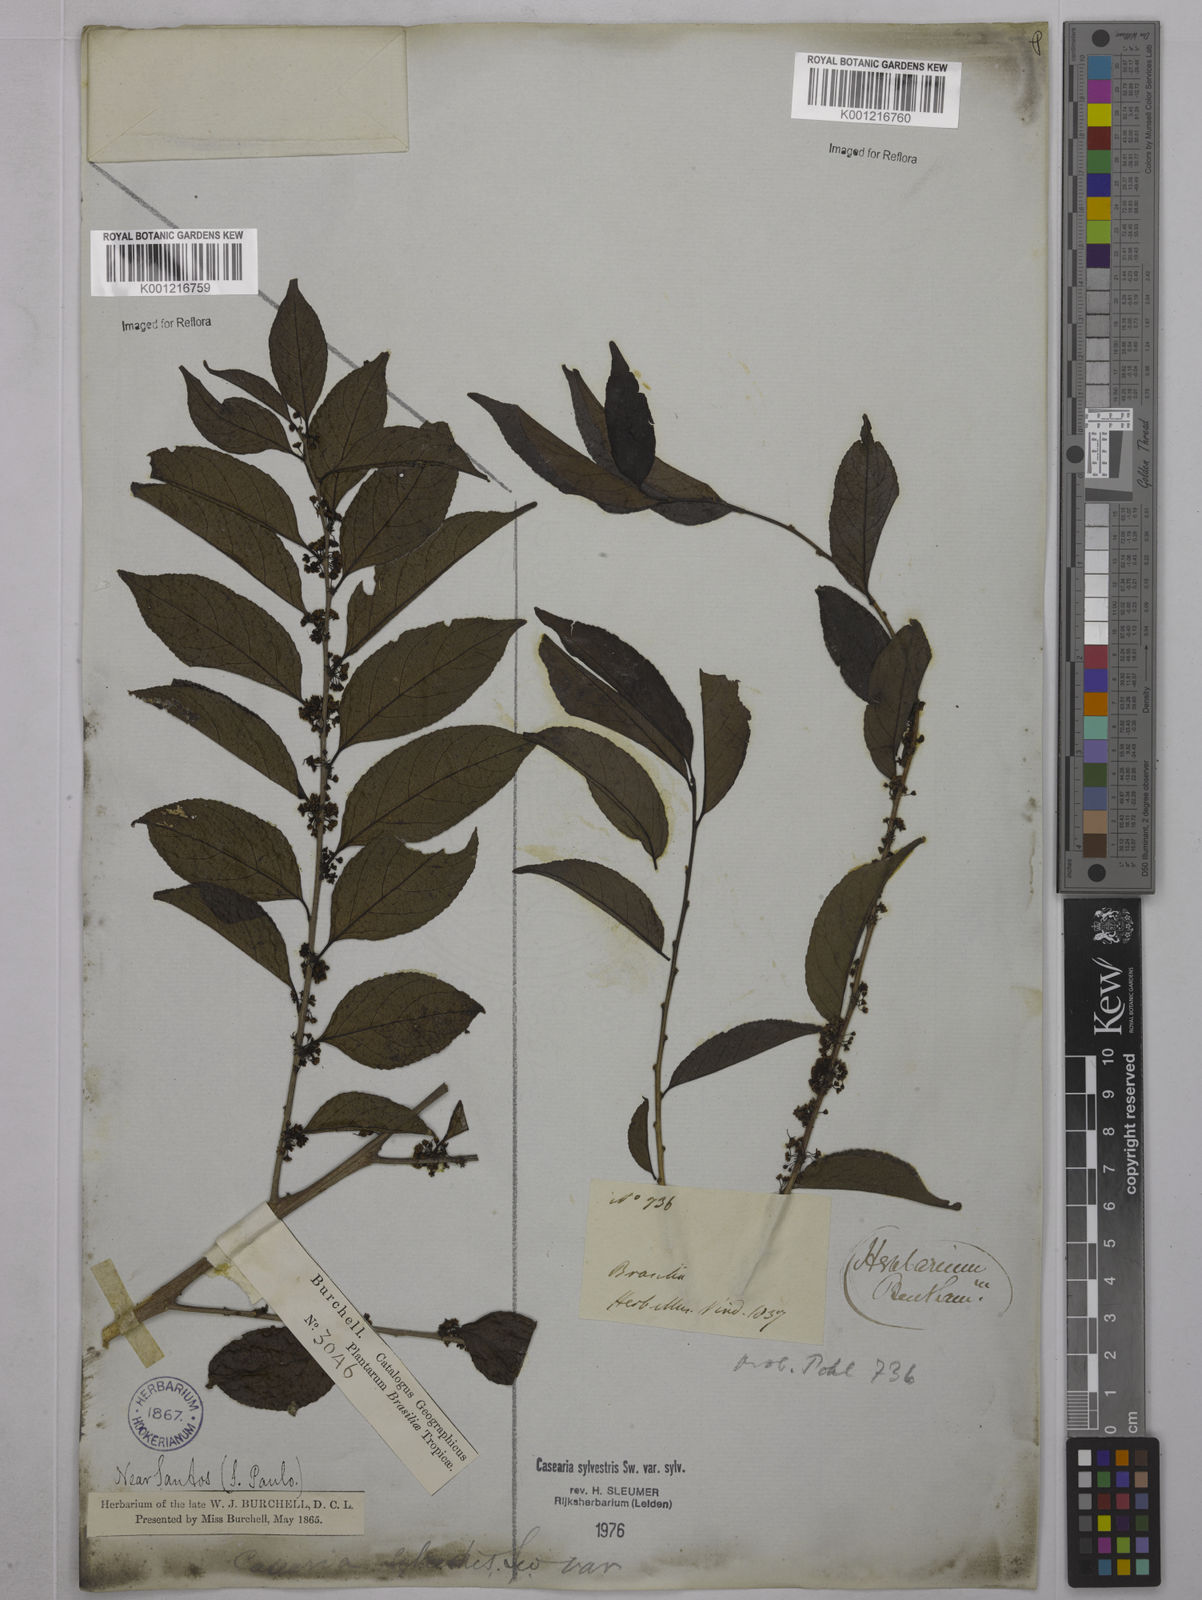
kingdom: Plantae
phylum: Tracheophyta
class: Magnoliopsida
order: Malpighiales
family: Salicaceae
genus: Casearia
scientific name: Casearia sylvestris
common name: Wild sage
